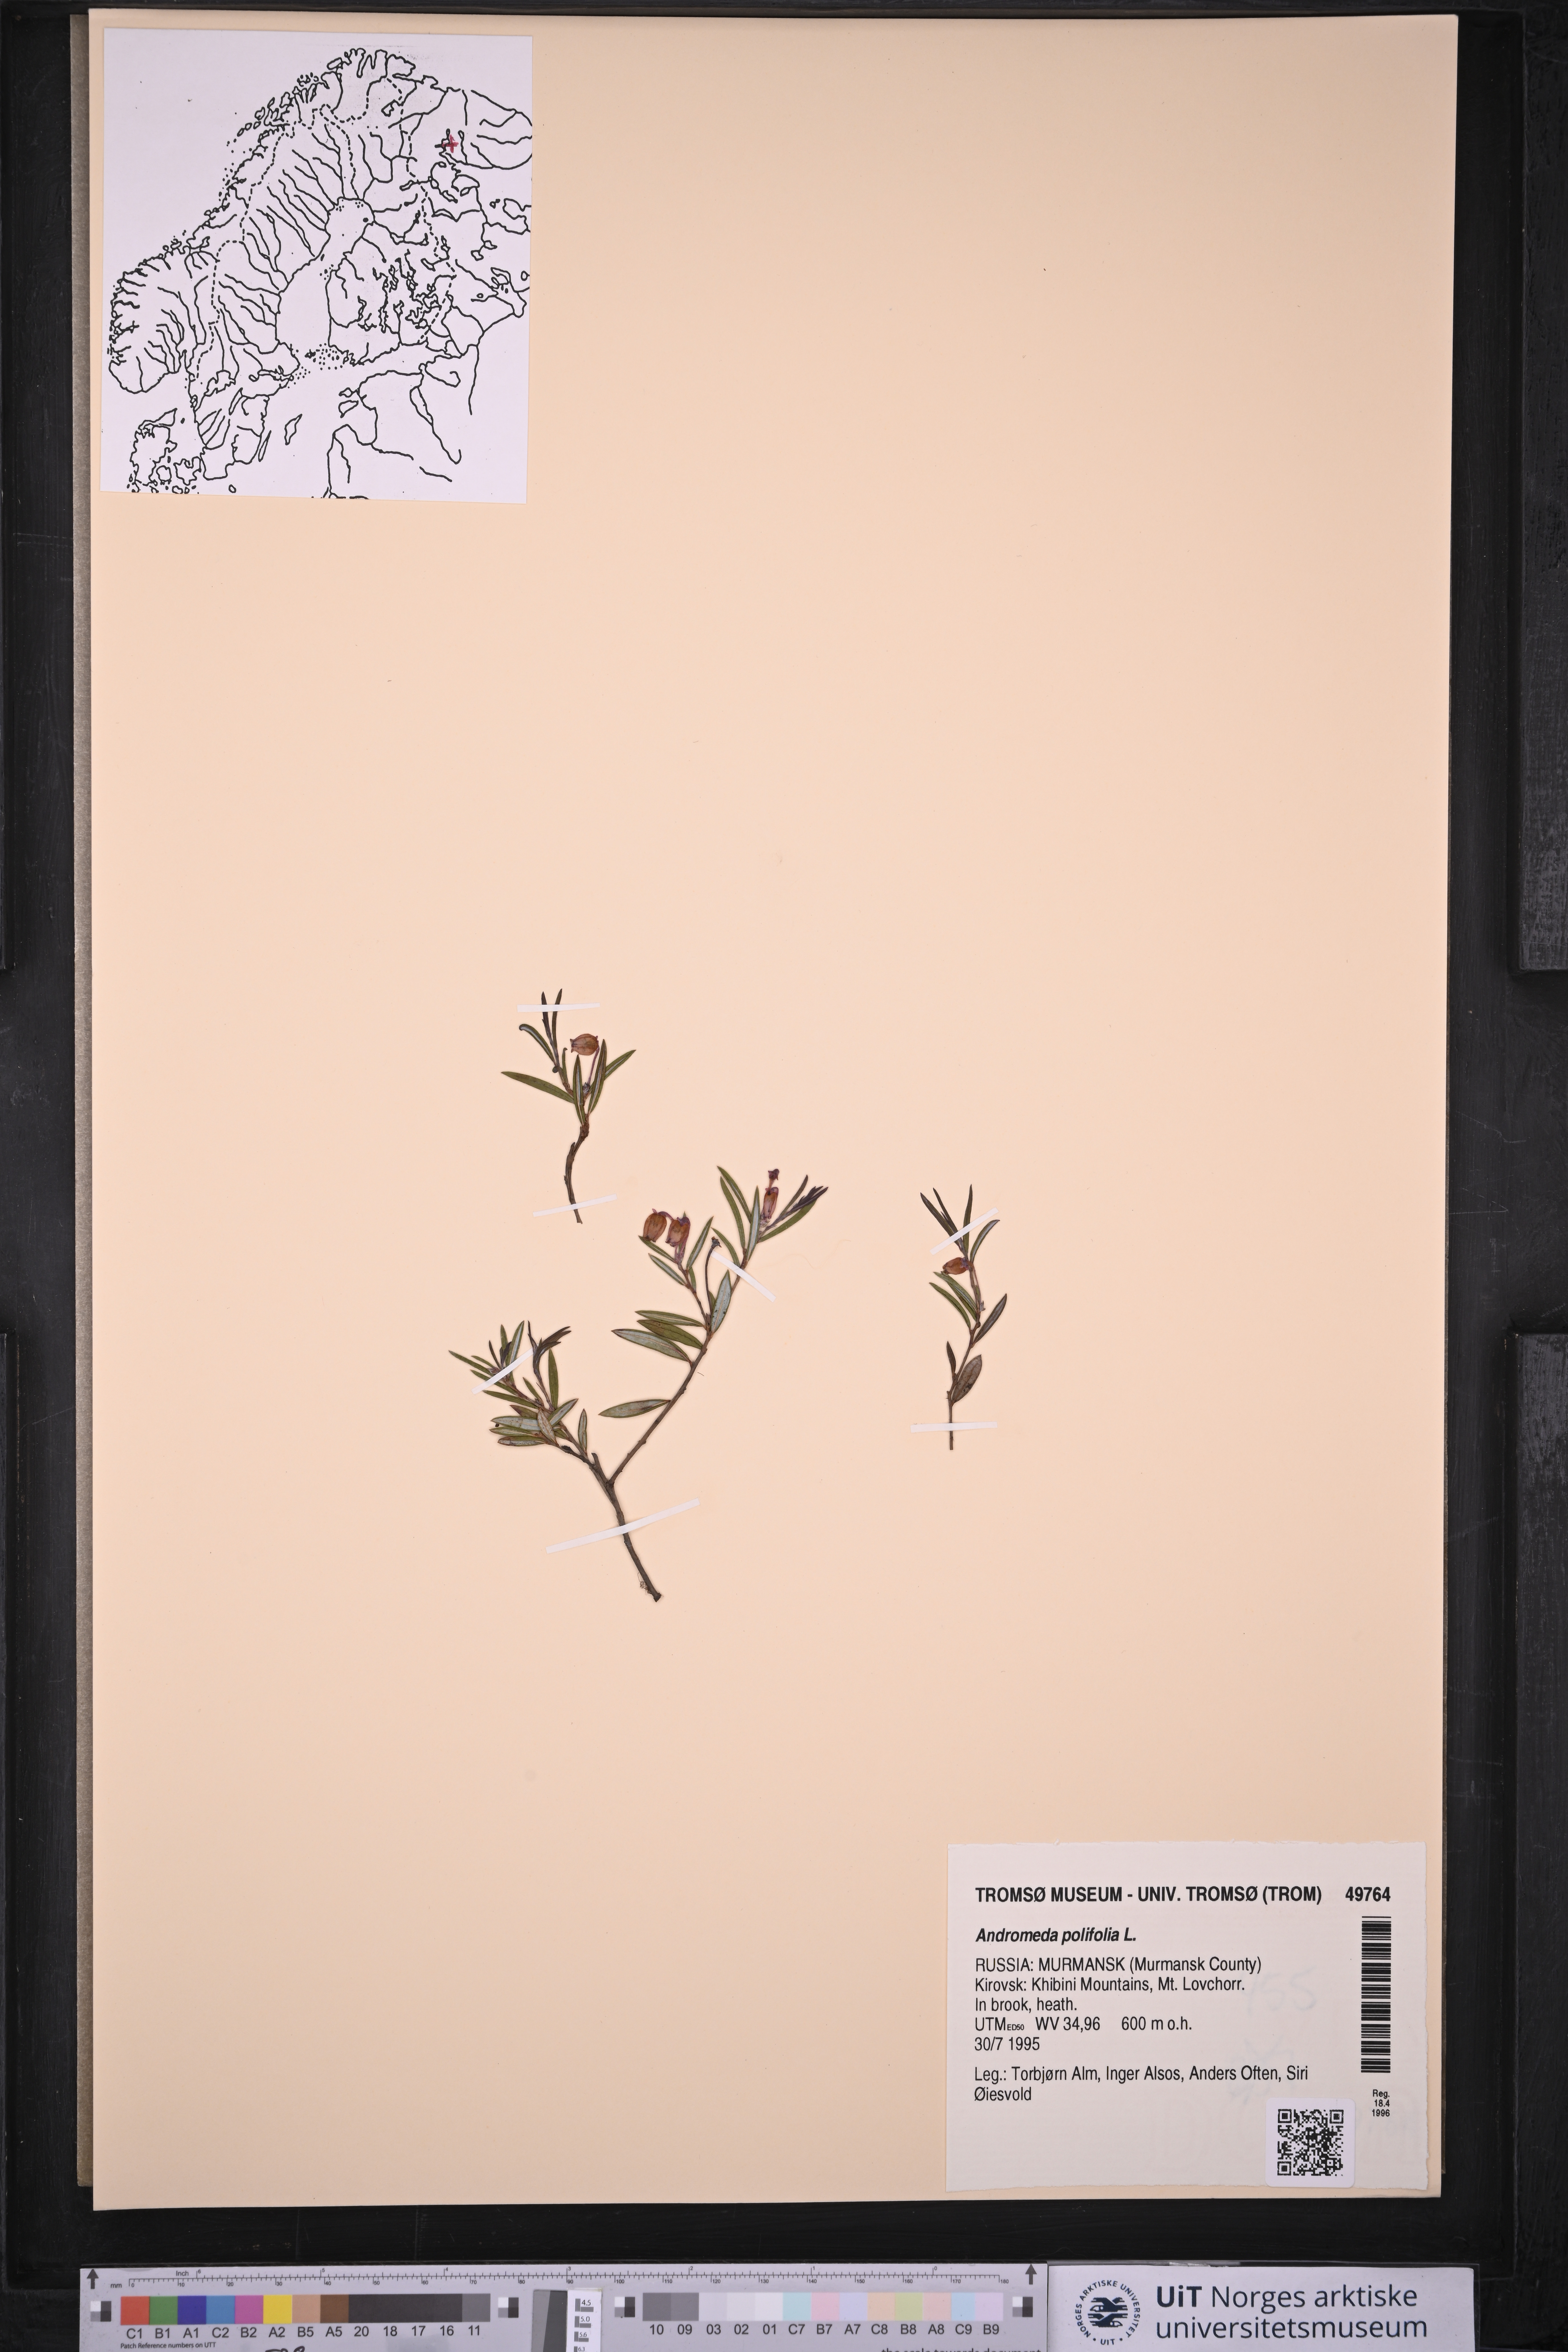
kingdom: Plantae
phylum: Tracheophyta
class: Magnoliopsida
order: Ericales
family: Ericaceae
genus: Andromeda
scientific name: Andromeda polifolia
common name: Bog-rosemary
